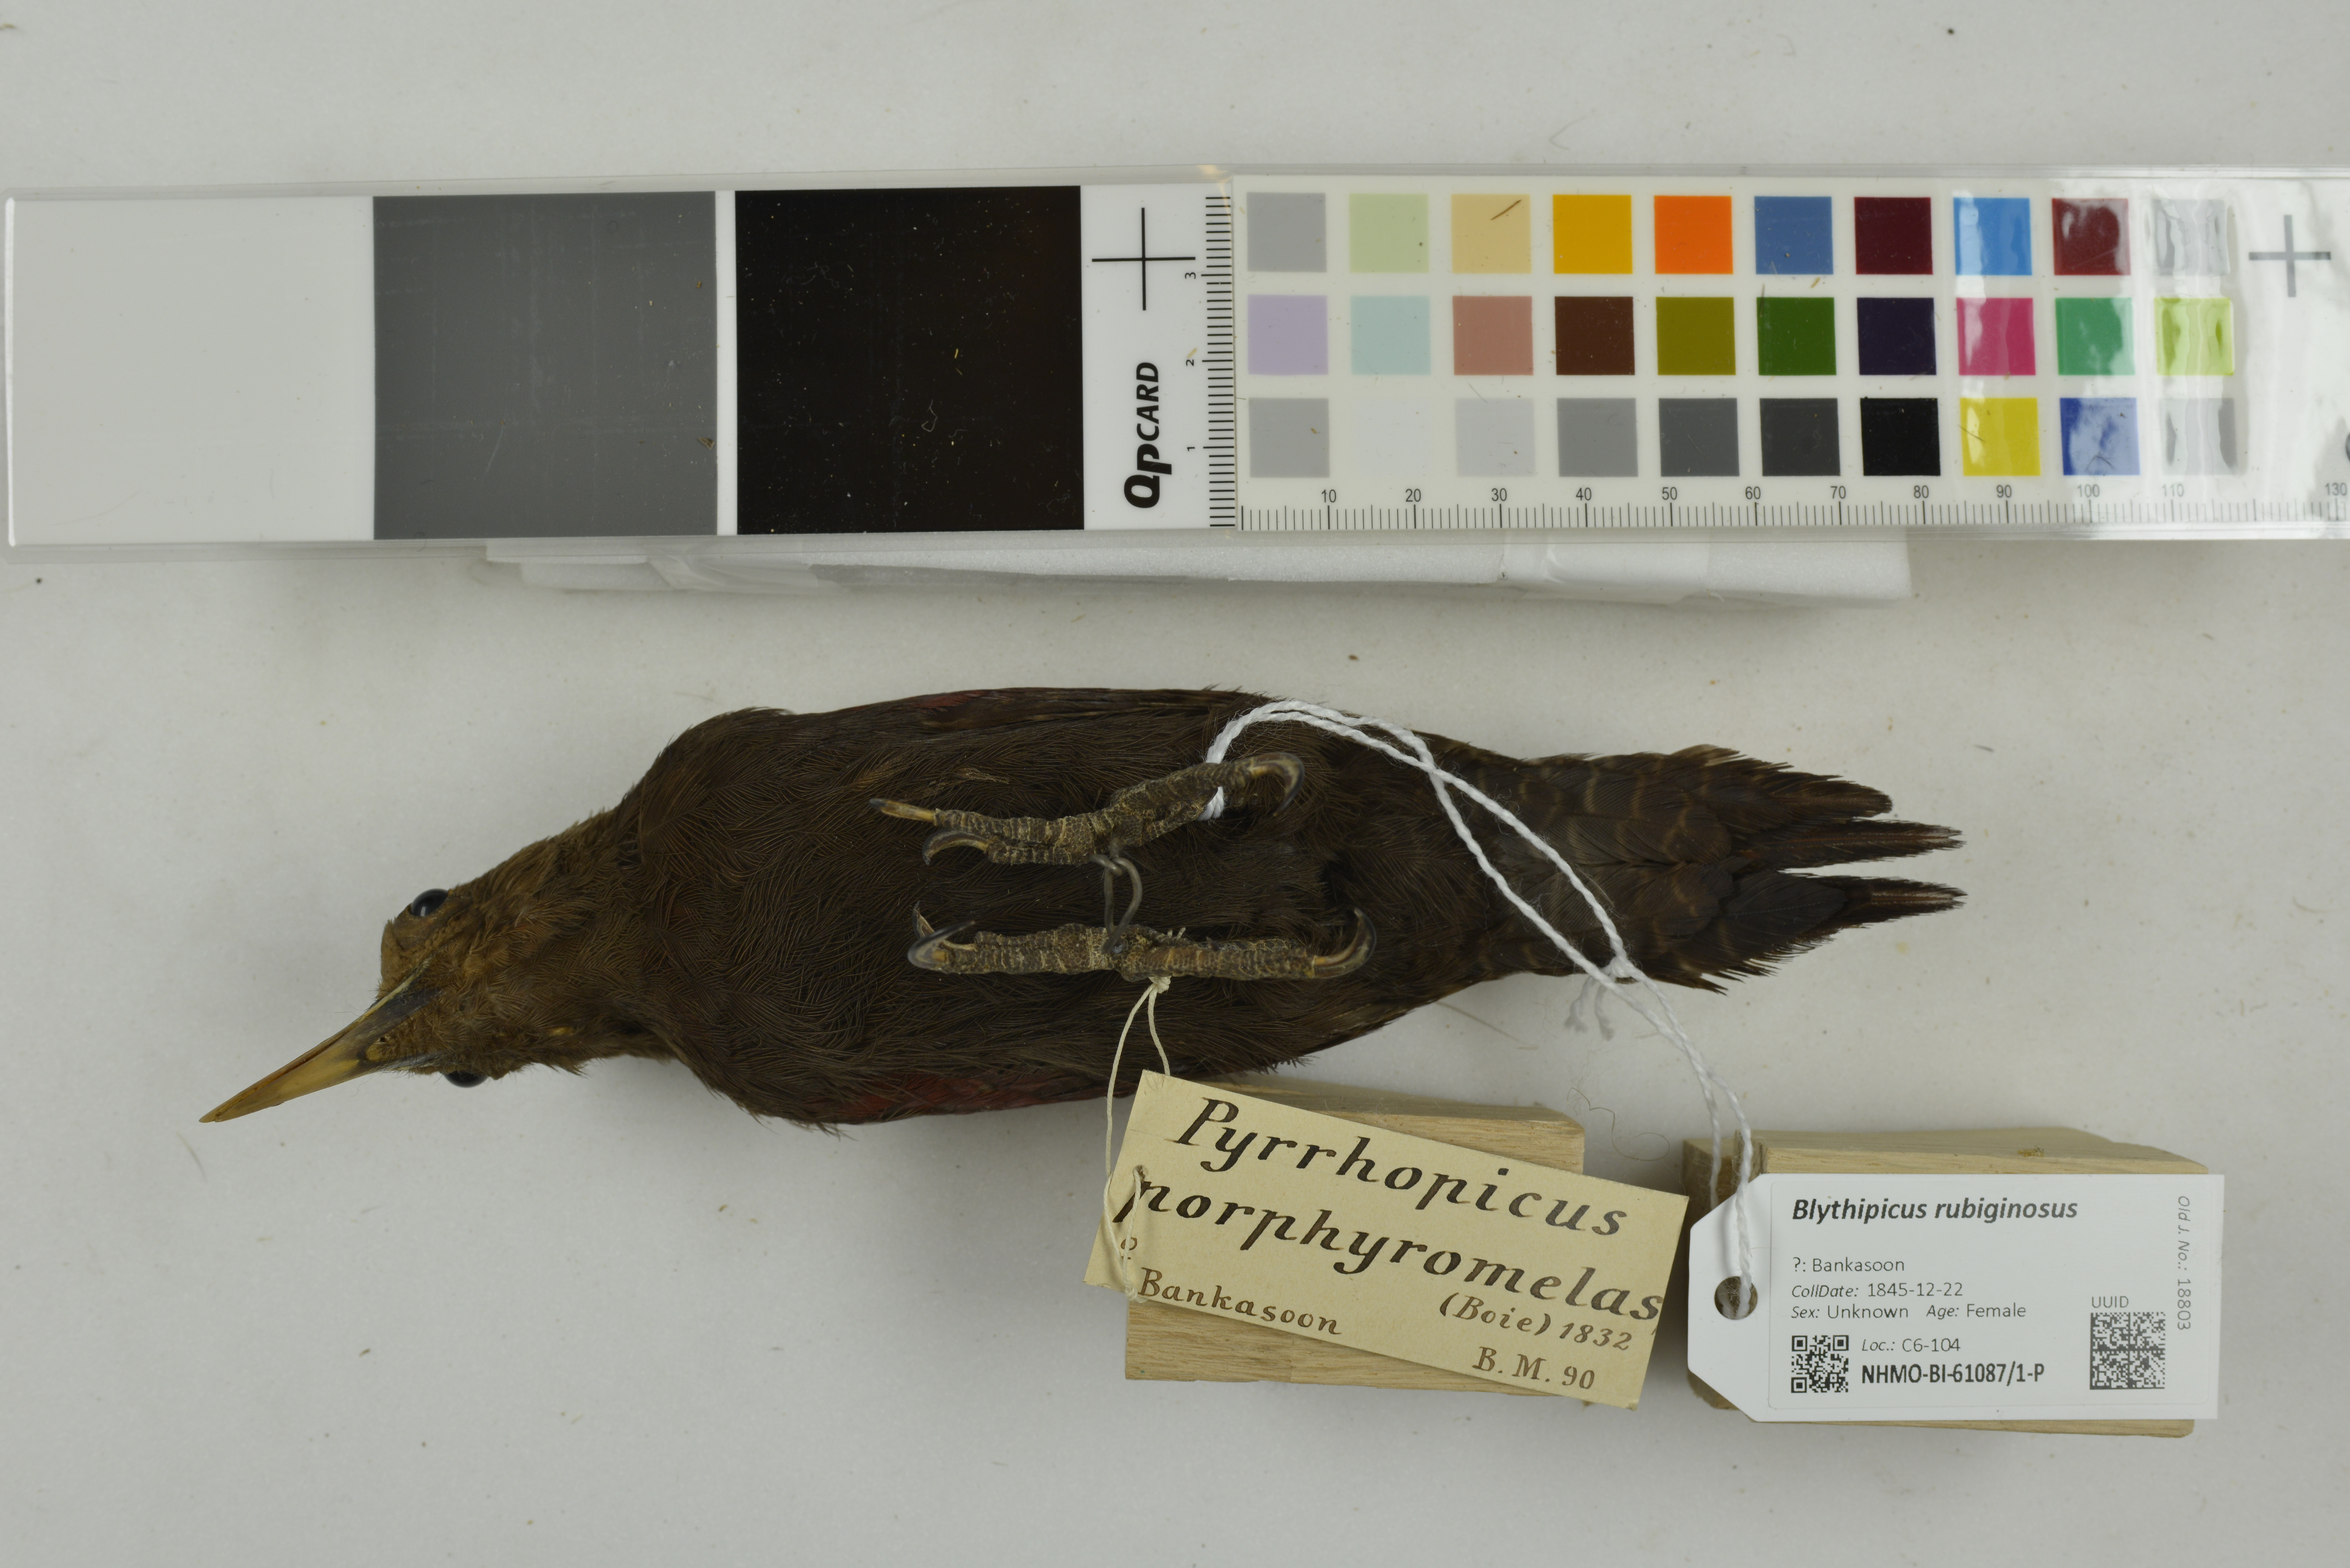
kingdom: Animalia
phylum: Chordata
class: Aves
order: Piciformes
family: Picidae
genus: Blythipicus
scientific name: Blythipicus rubiginosus
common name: Maroon woodpecker
